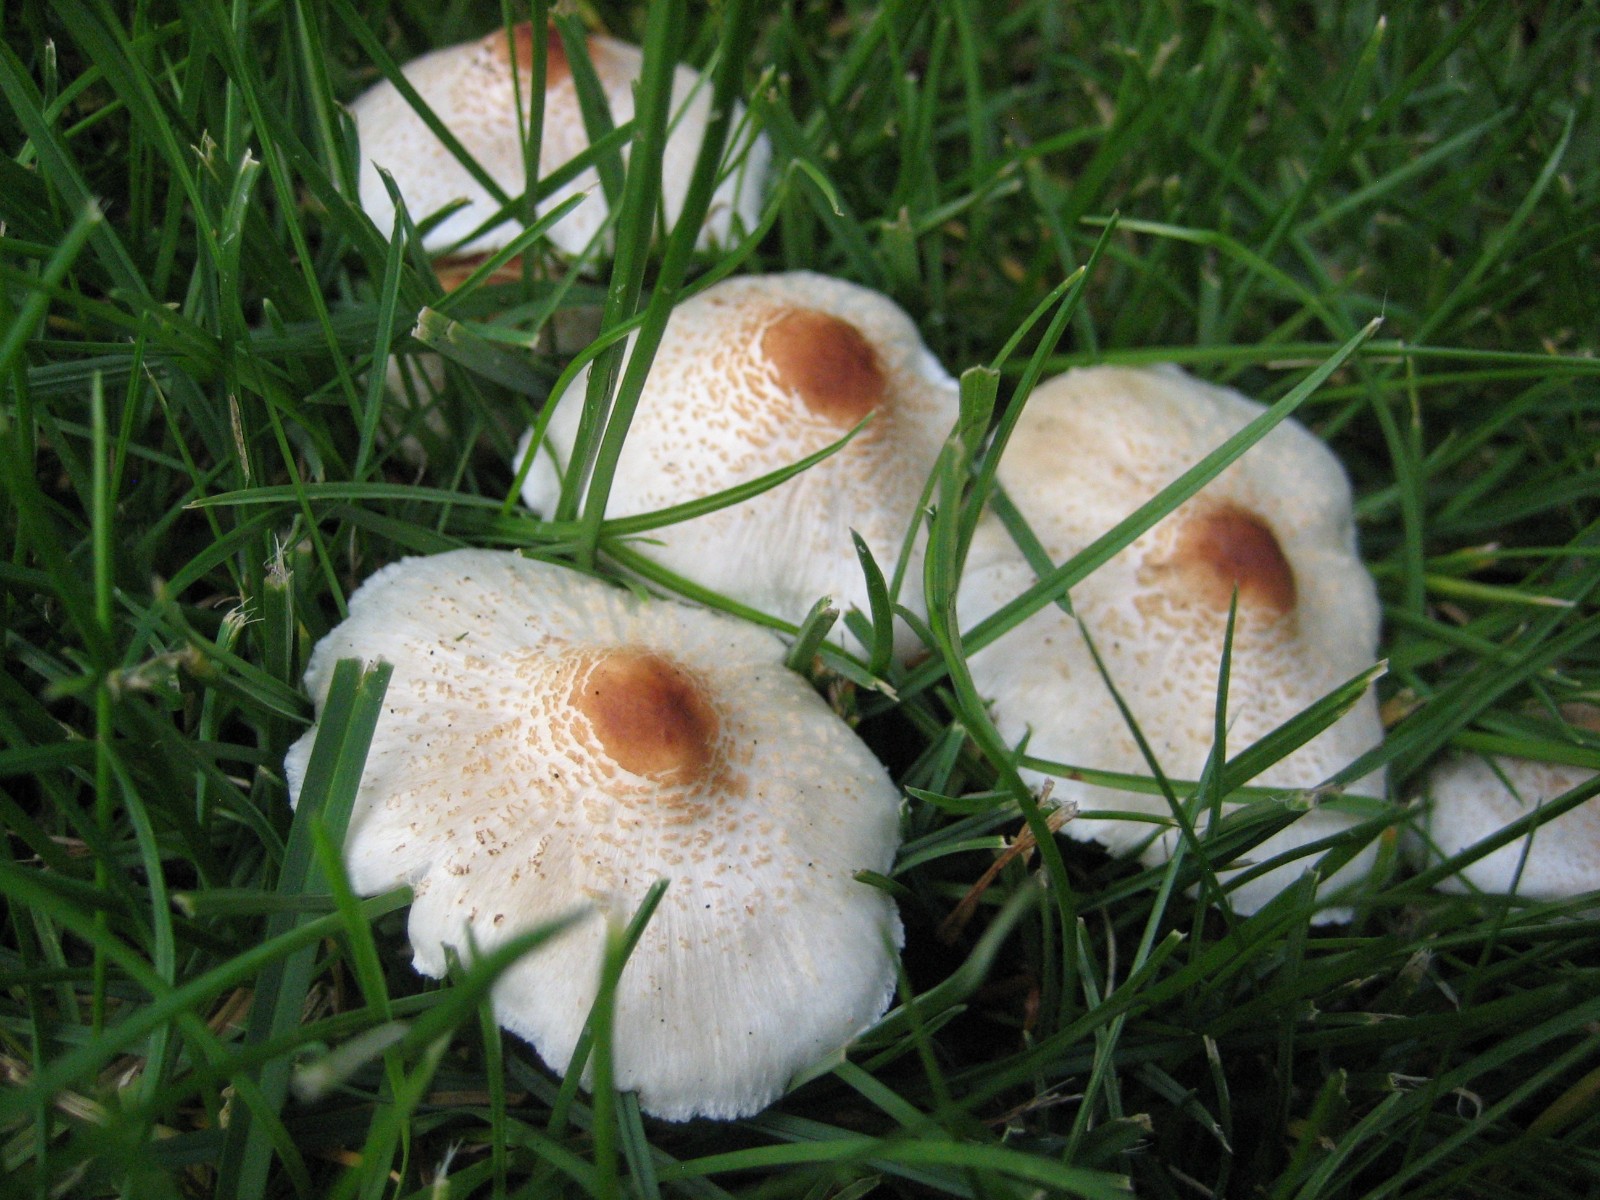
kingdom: Fungi
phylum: Basidiomycota
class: Agaricomycetes
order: Agaricales
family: Agaricaceae
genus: Lepiota
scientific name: Lepiota cristata
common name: stinkende parasolhat
